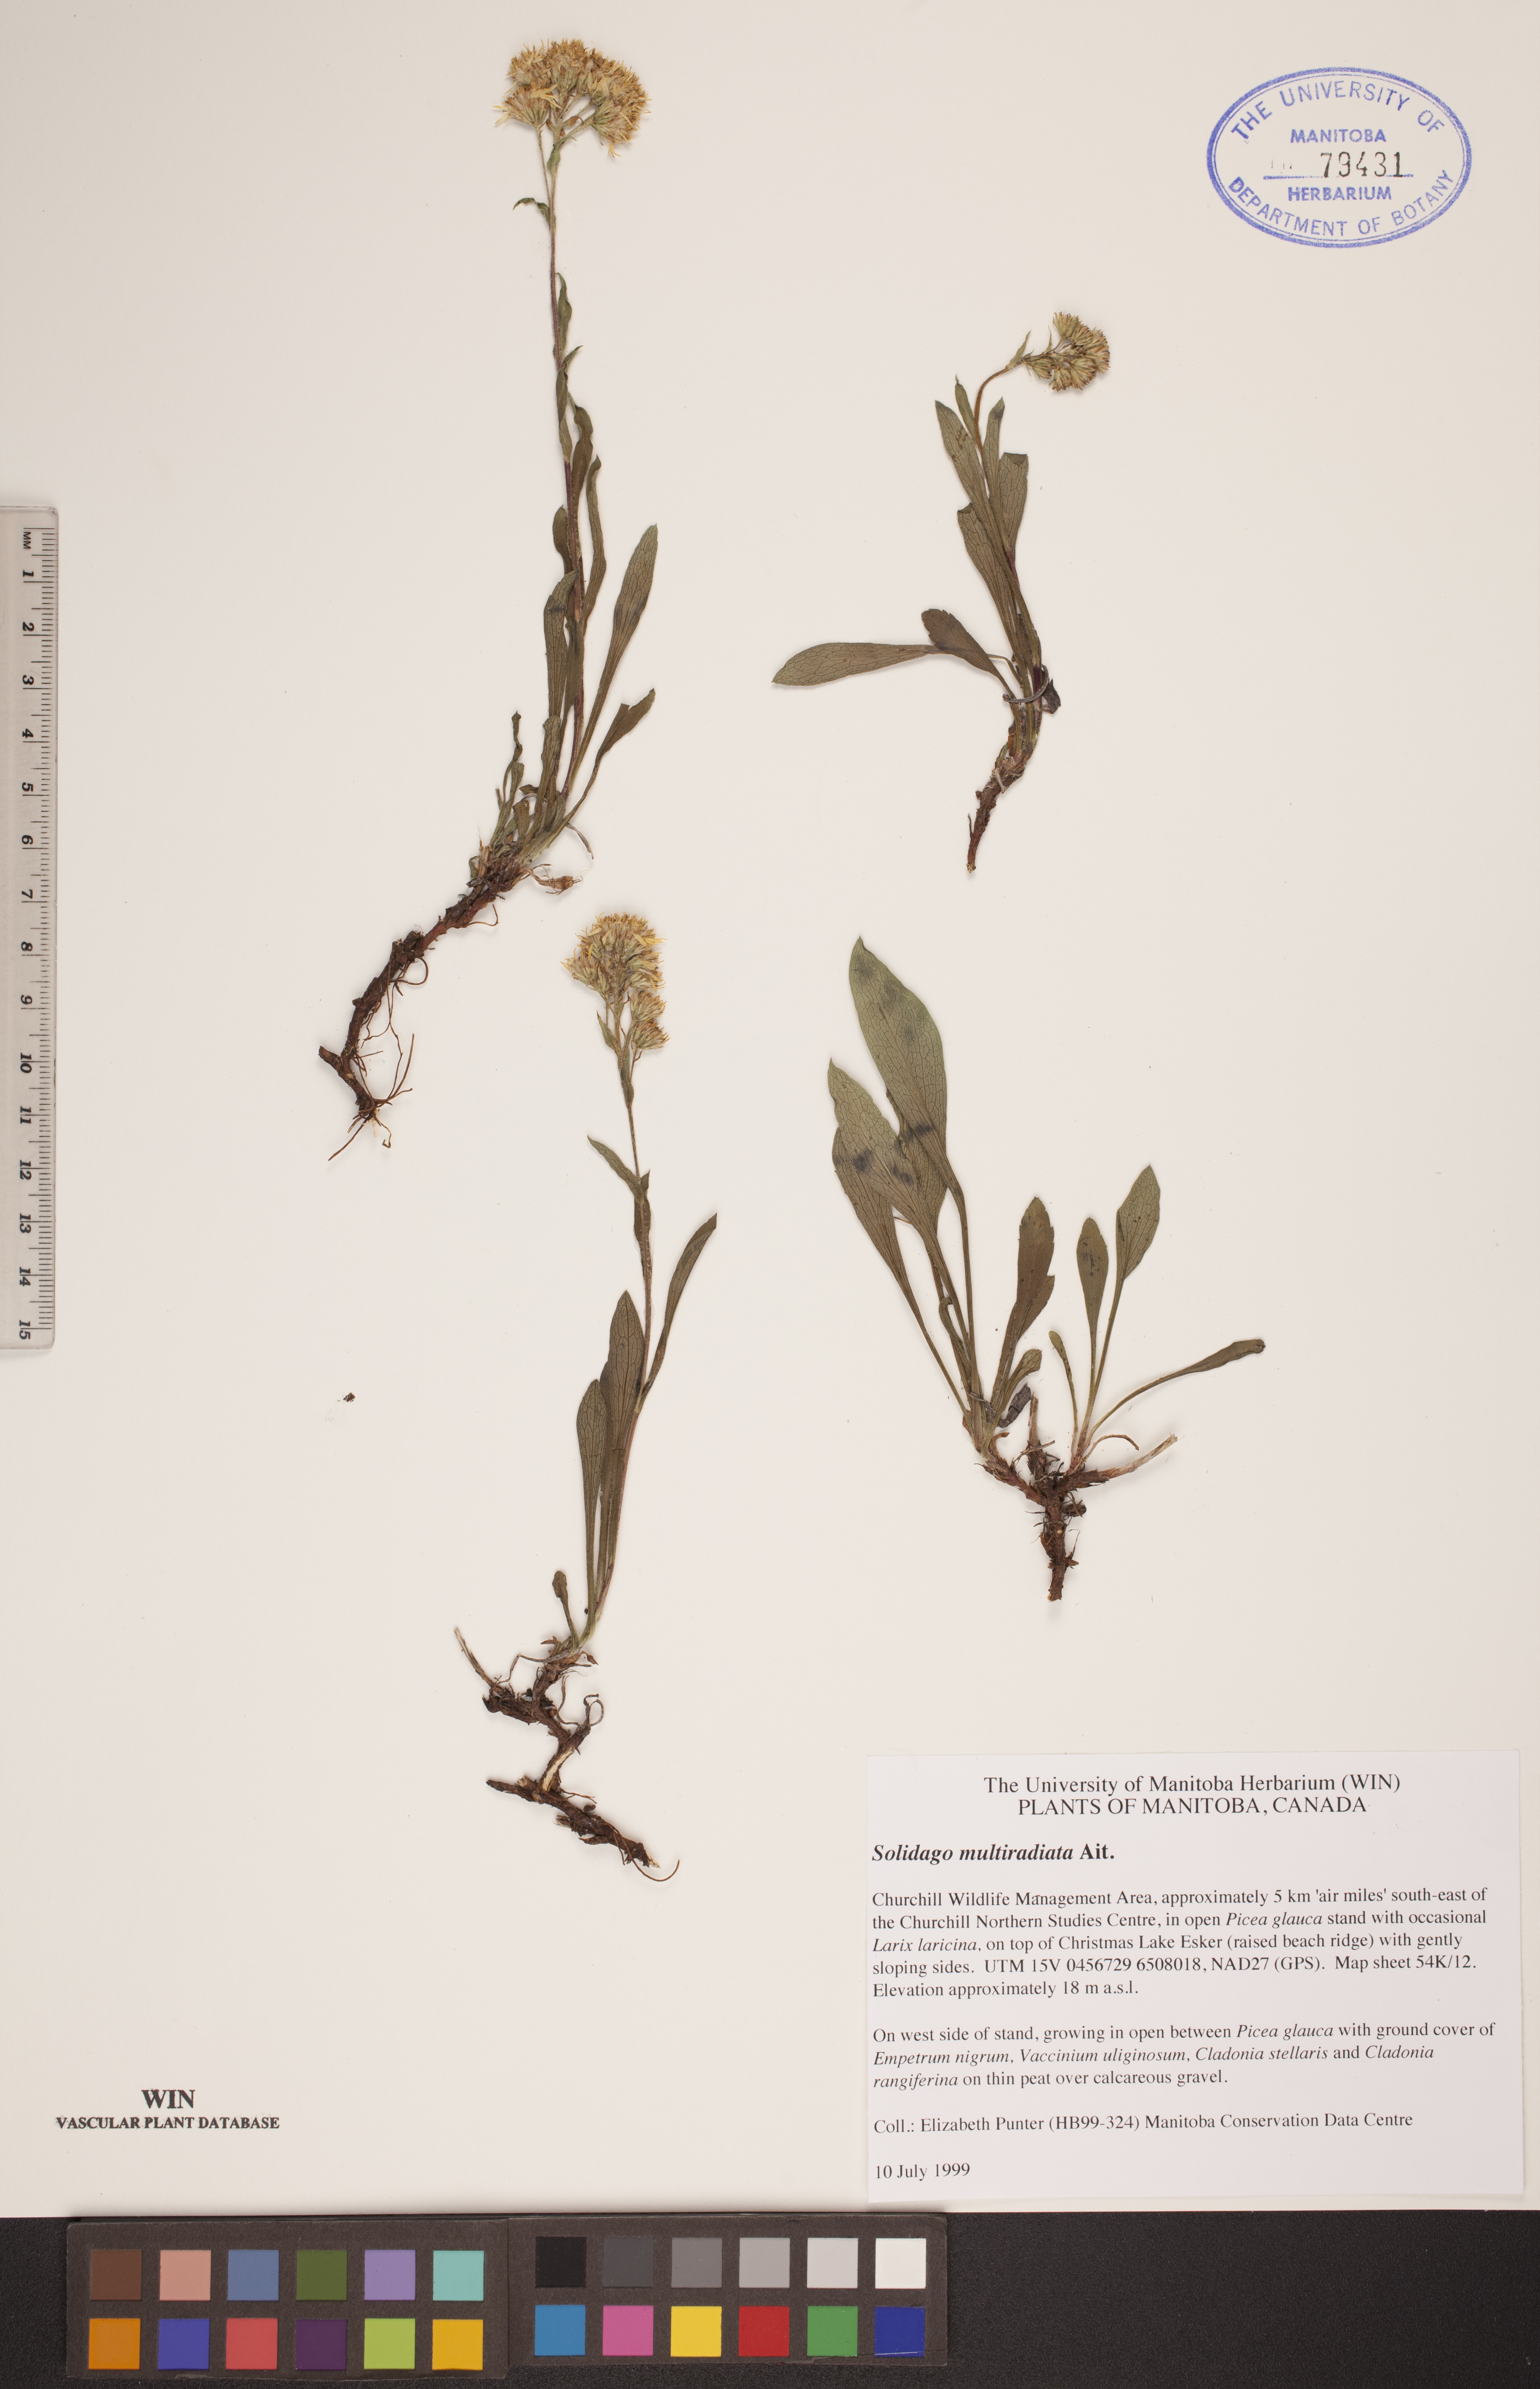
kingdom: Plantae
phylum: Tracheophyta
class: Magnoliopsida
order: Asterales
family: Asteraceae
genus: Solidago
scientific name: Solidago multiradiata
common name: Northern goldenrod
